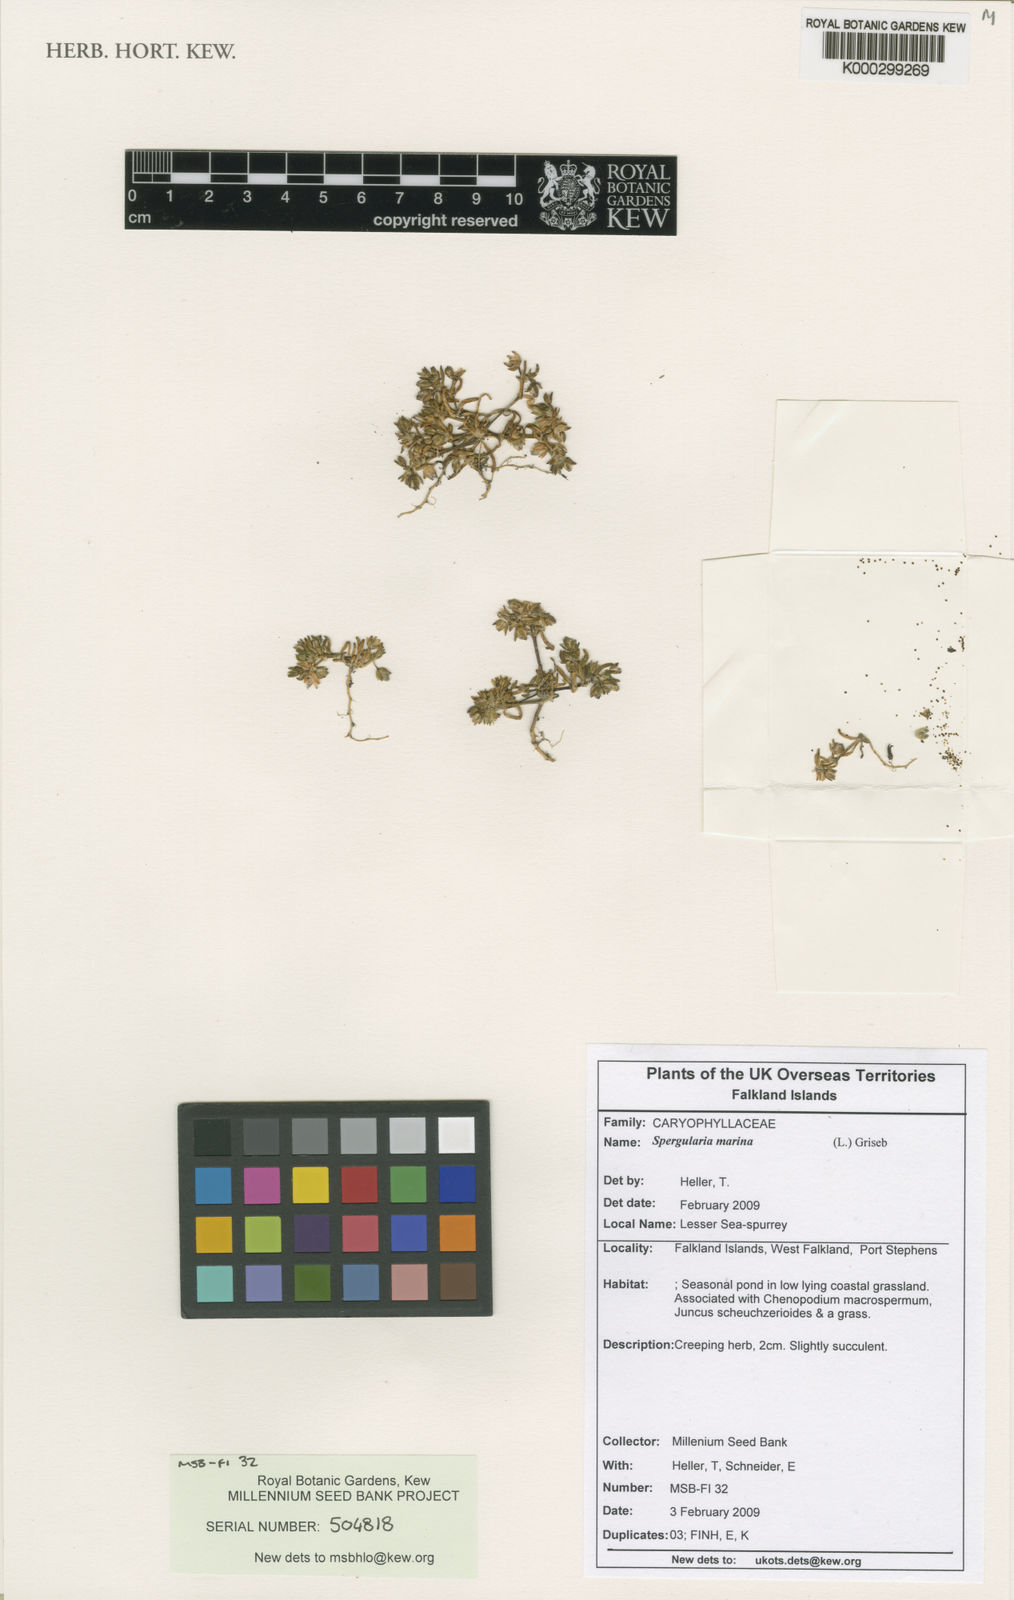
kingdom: Plantae
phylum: Tracheophyta
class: Magnoliopsida
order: Caryophyllales
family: Caryophyllaceae
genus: Spergularia
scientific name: Spergularia marina
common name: Lesser sea-spurrey
